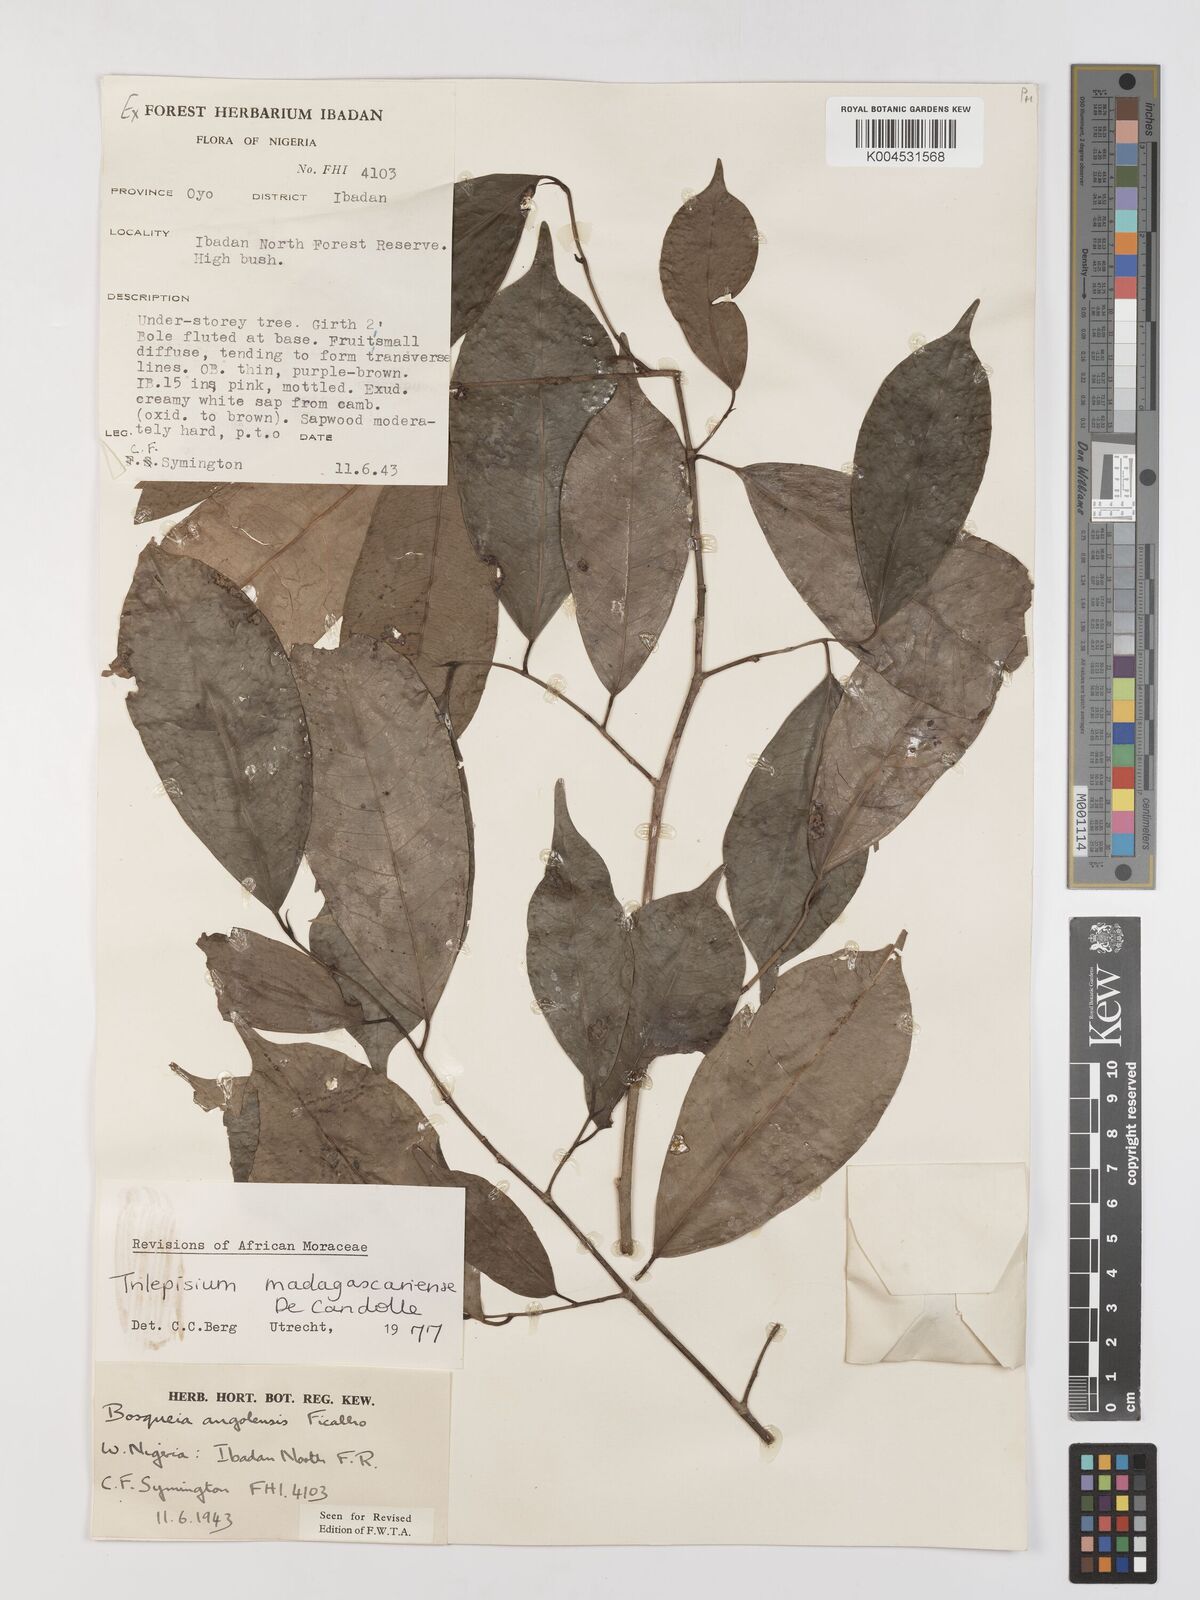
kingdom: Plantae
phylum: Tracheophyta
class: Magnoliopsida
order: Rosales
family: Moraceae
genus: Trilepisium
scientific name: Trilepisium madagascariense
